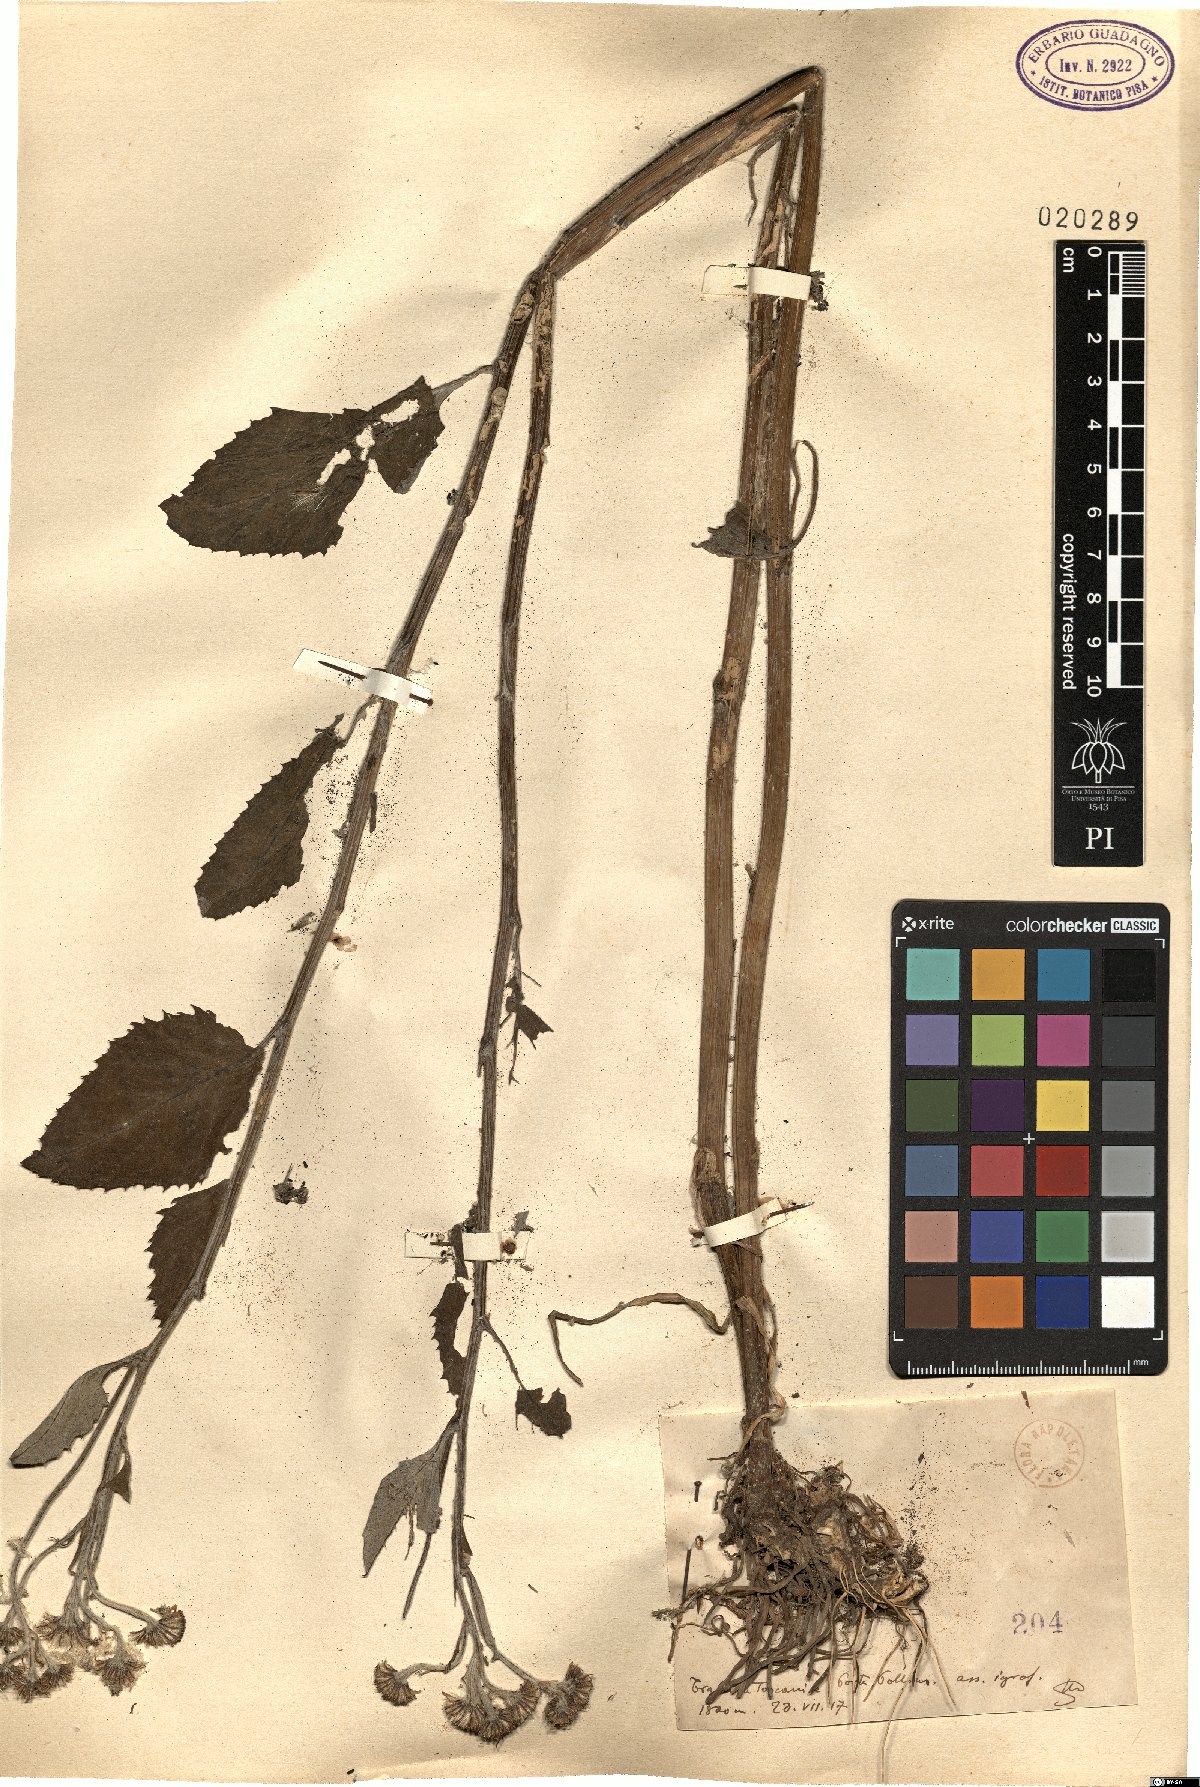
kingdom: Plantae
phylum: Tracheophyta
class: Magnoliopsida
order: Asterales
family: Asteraceae
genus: Senecio
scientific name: Senecio
